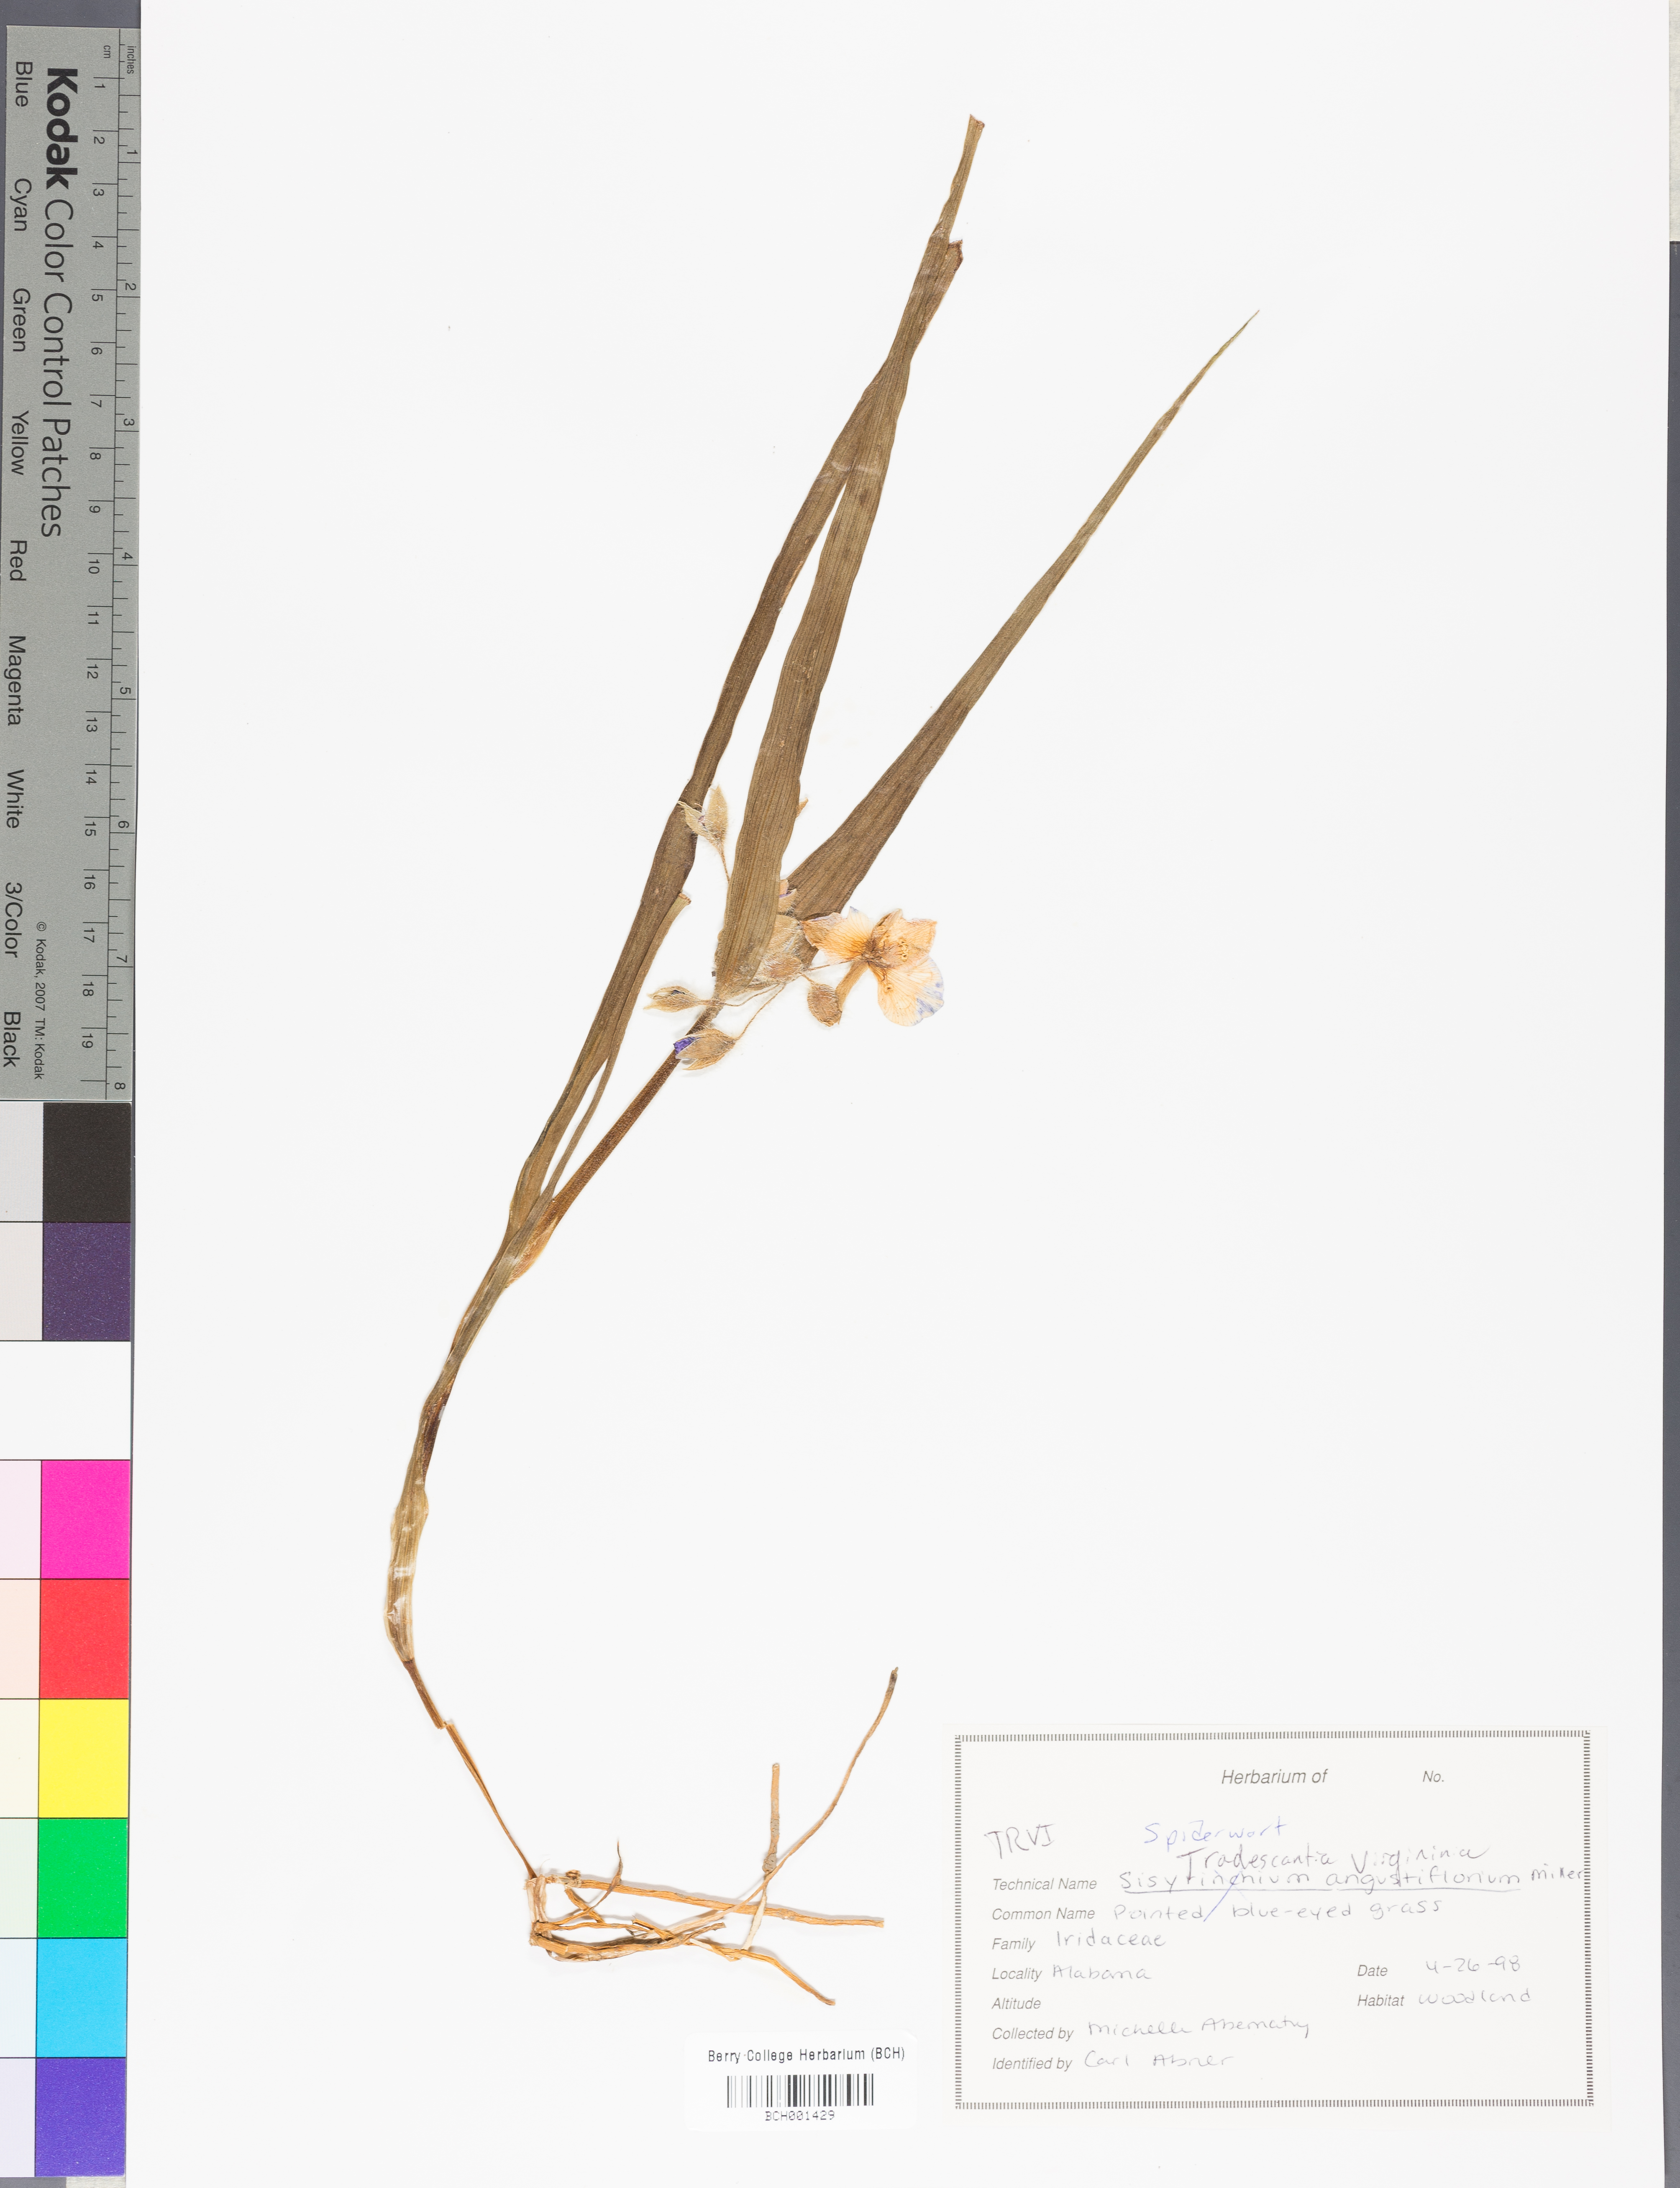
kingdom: Plantae
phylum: Tracheophyta
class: Liliopsida
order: Commelinales
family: Commelinaceae
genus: Tradescantia
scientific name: Tradescantia virginiana
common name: Spiderwort
